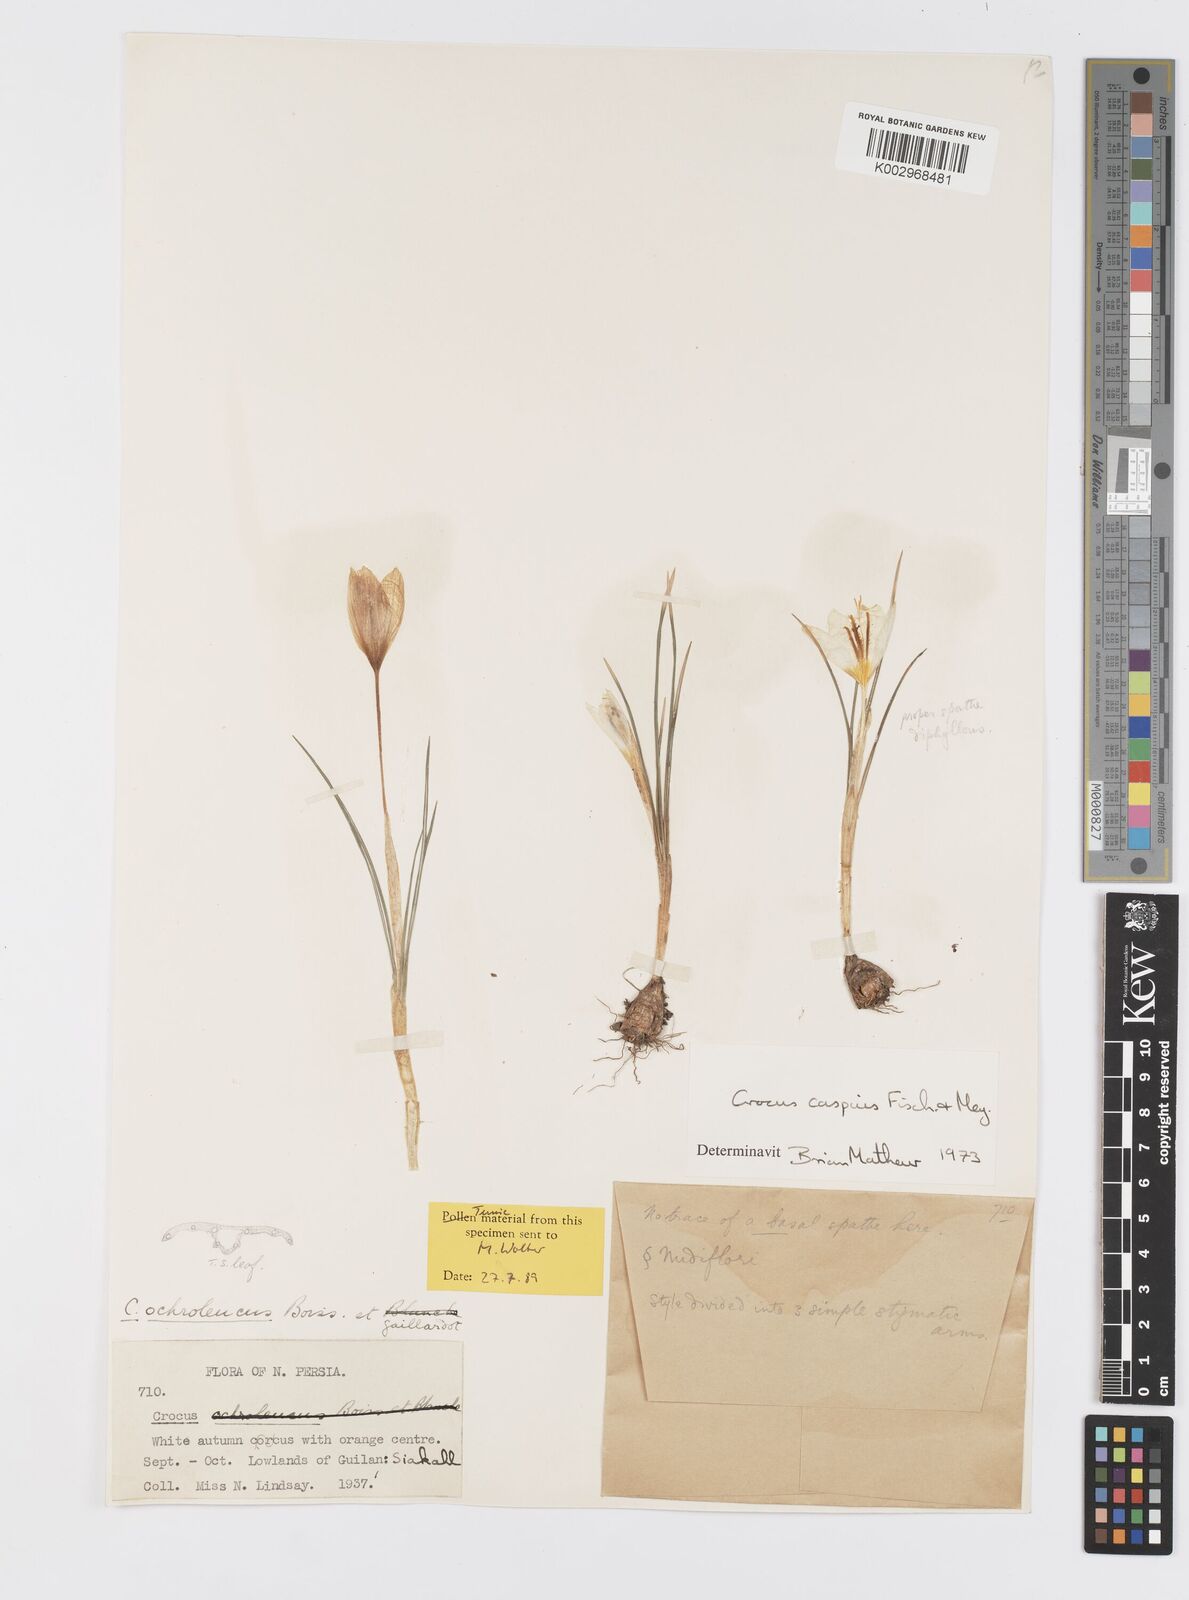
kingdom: Plantae
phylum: Tracheophyta
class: Liliopsida
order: Asparagales
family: Iridaceae
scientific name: Iridaceae
